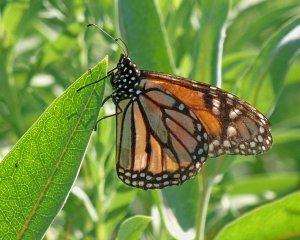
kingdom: Animalia
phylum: Arthropoda
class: Insecta
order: Lepidoptera
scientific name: Lepidoptera
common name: Butterflies
